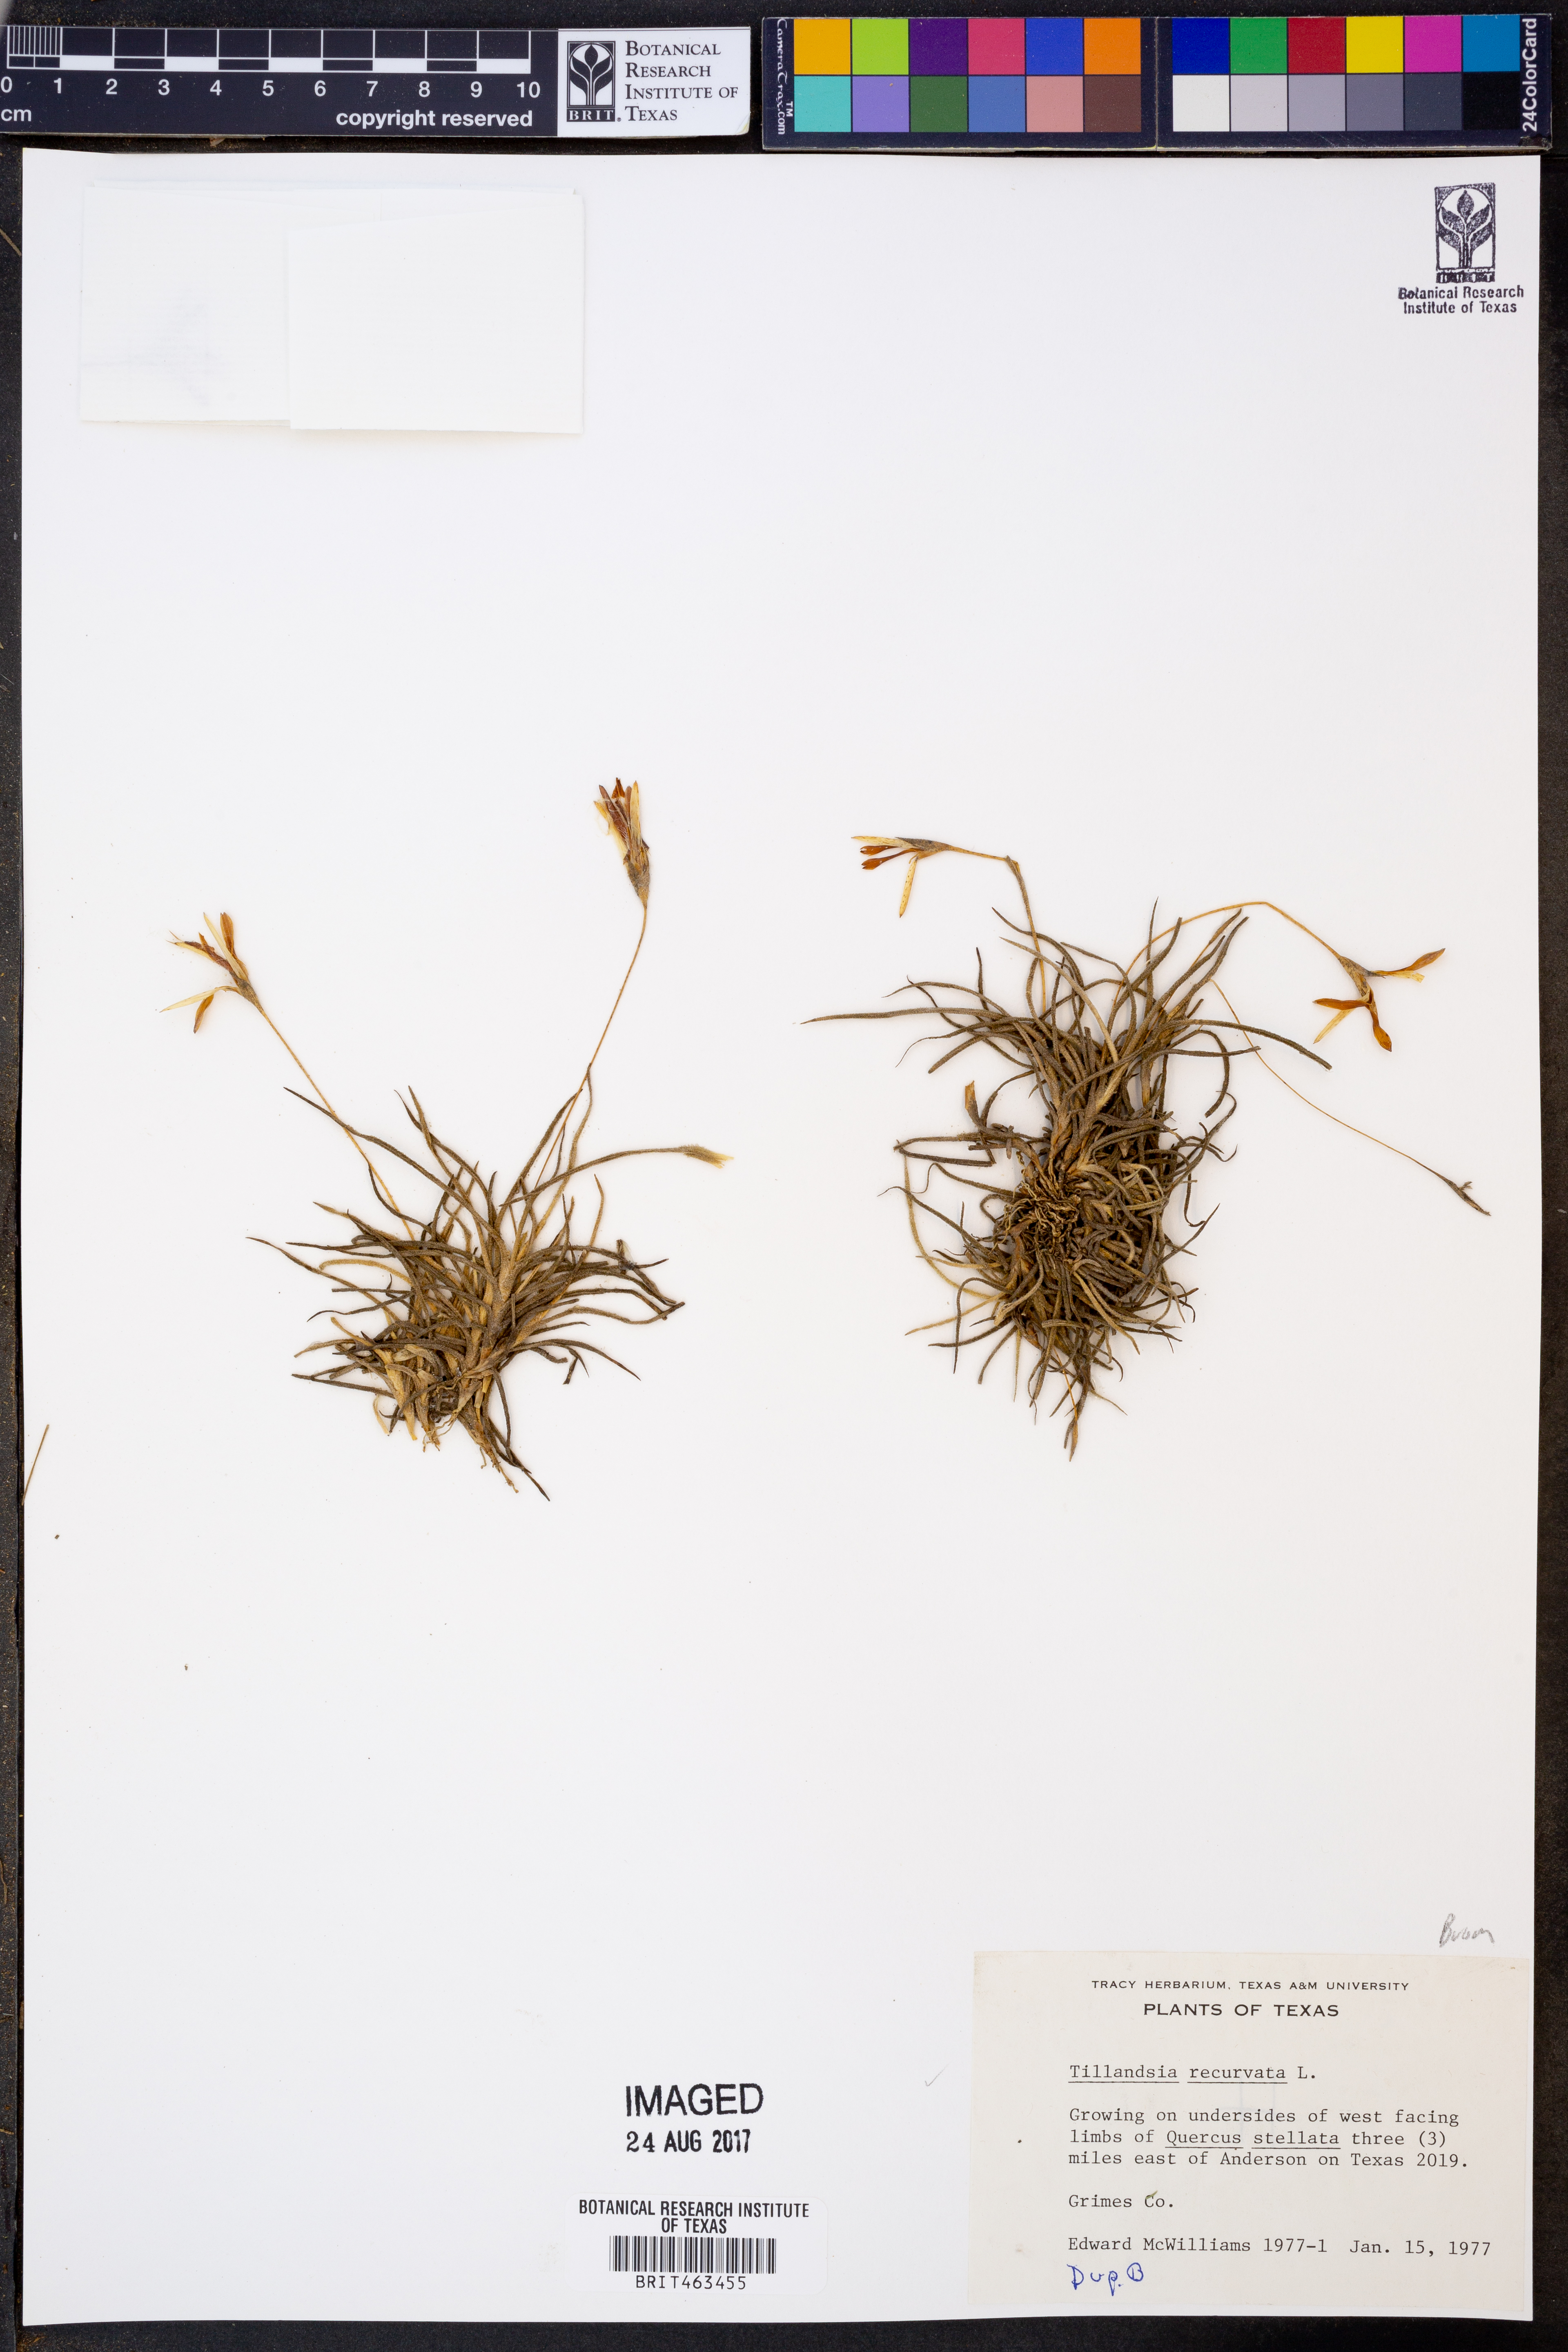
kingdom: Plantae
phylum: Tracheophyta
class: Liliopsida
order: Poales
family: Bromeliaceae
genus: Tillandsia
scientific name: Tillandsia recurvata
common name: Small ballmoss
